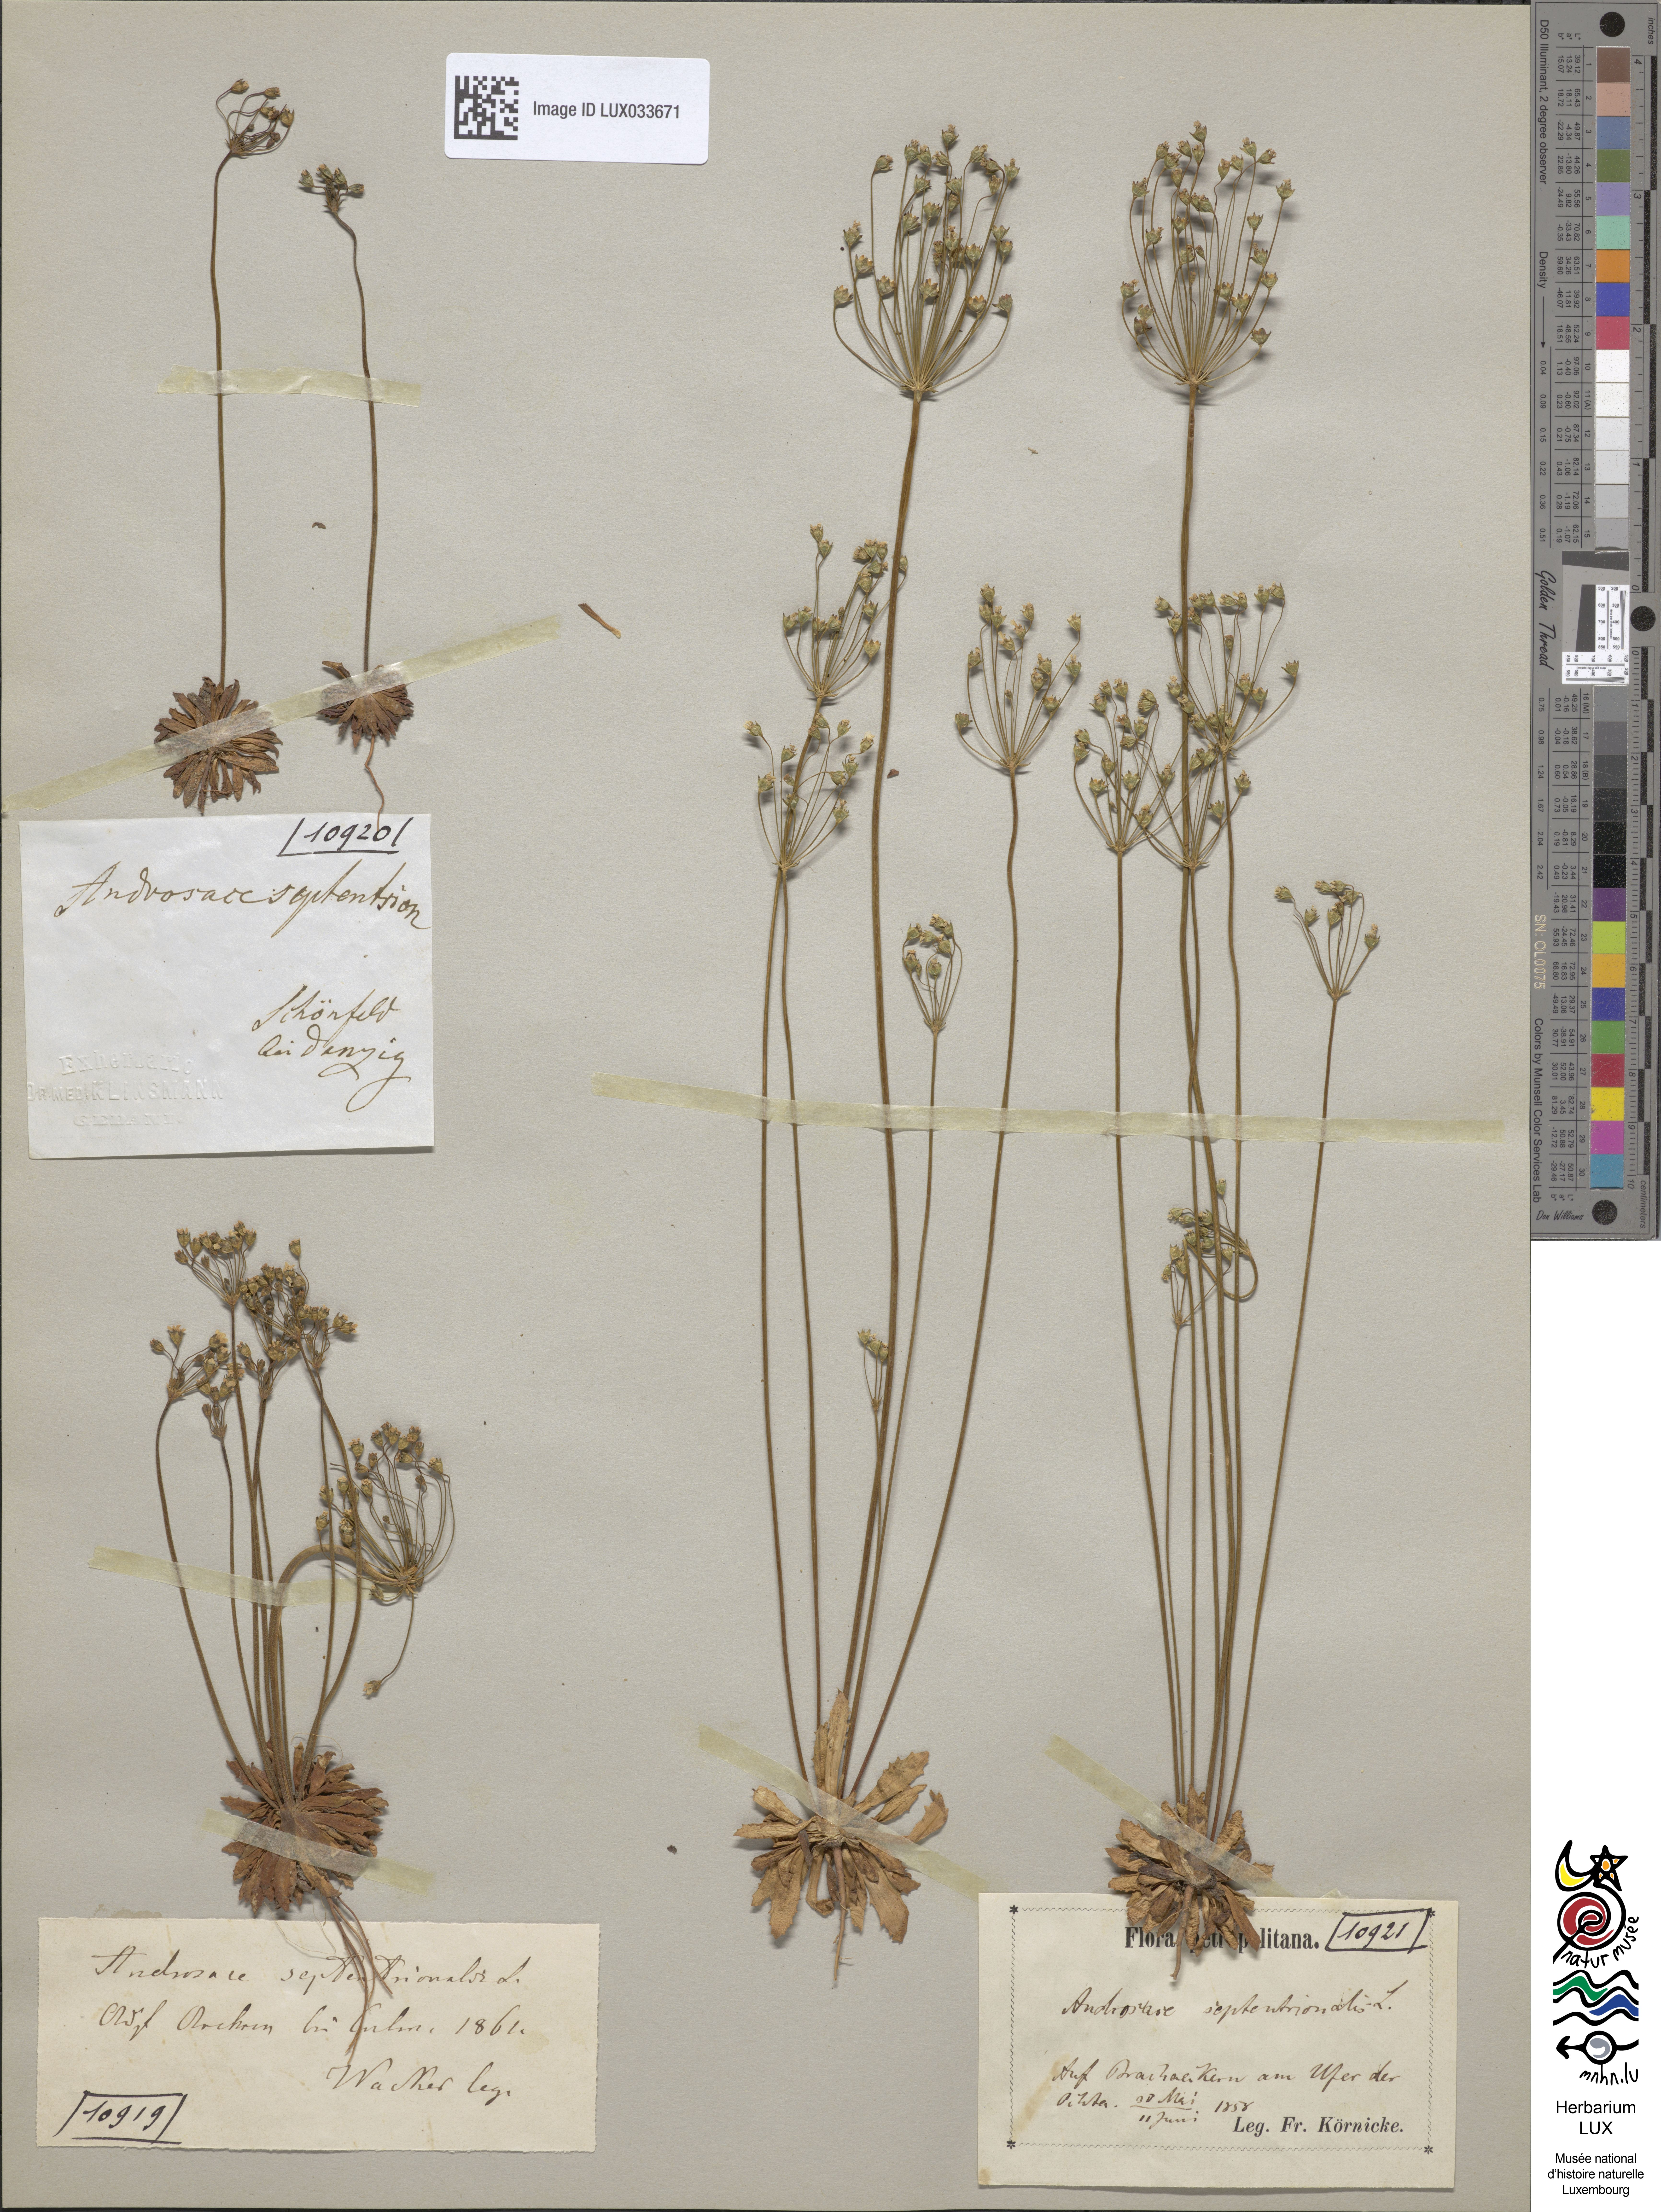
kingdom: Plantae
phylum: Tracheophyta
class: Magnoliopsida
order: Ericales
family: Primulaceae
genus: Androsace
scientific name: Androsace septentrionalis
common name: Hairy northern fairy-candelabra
